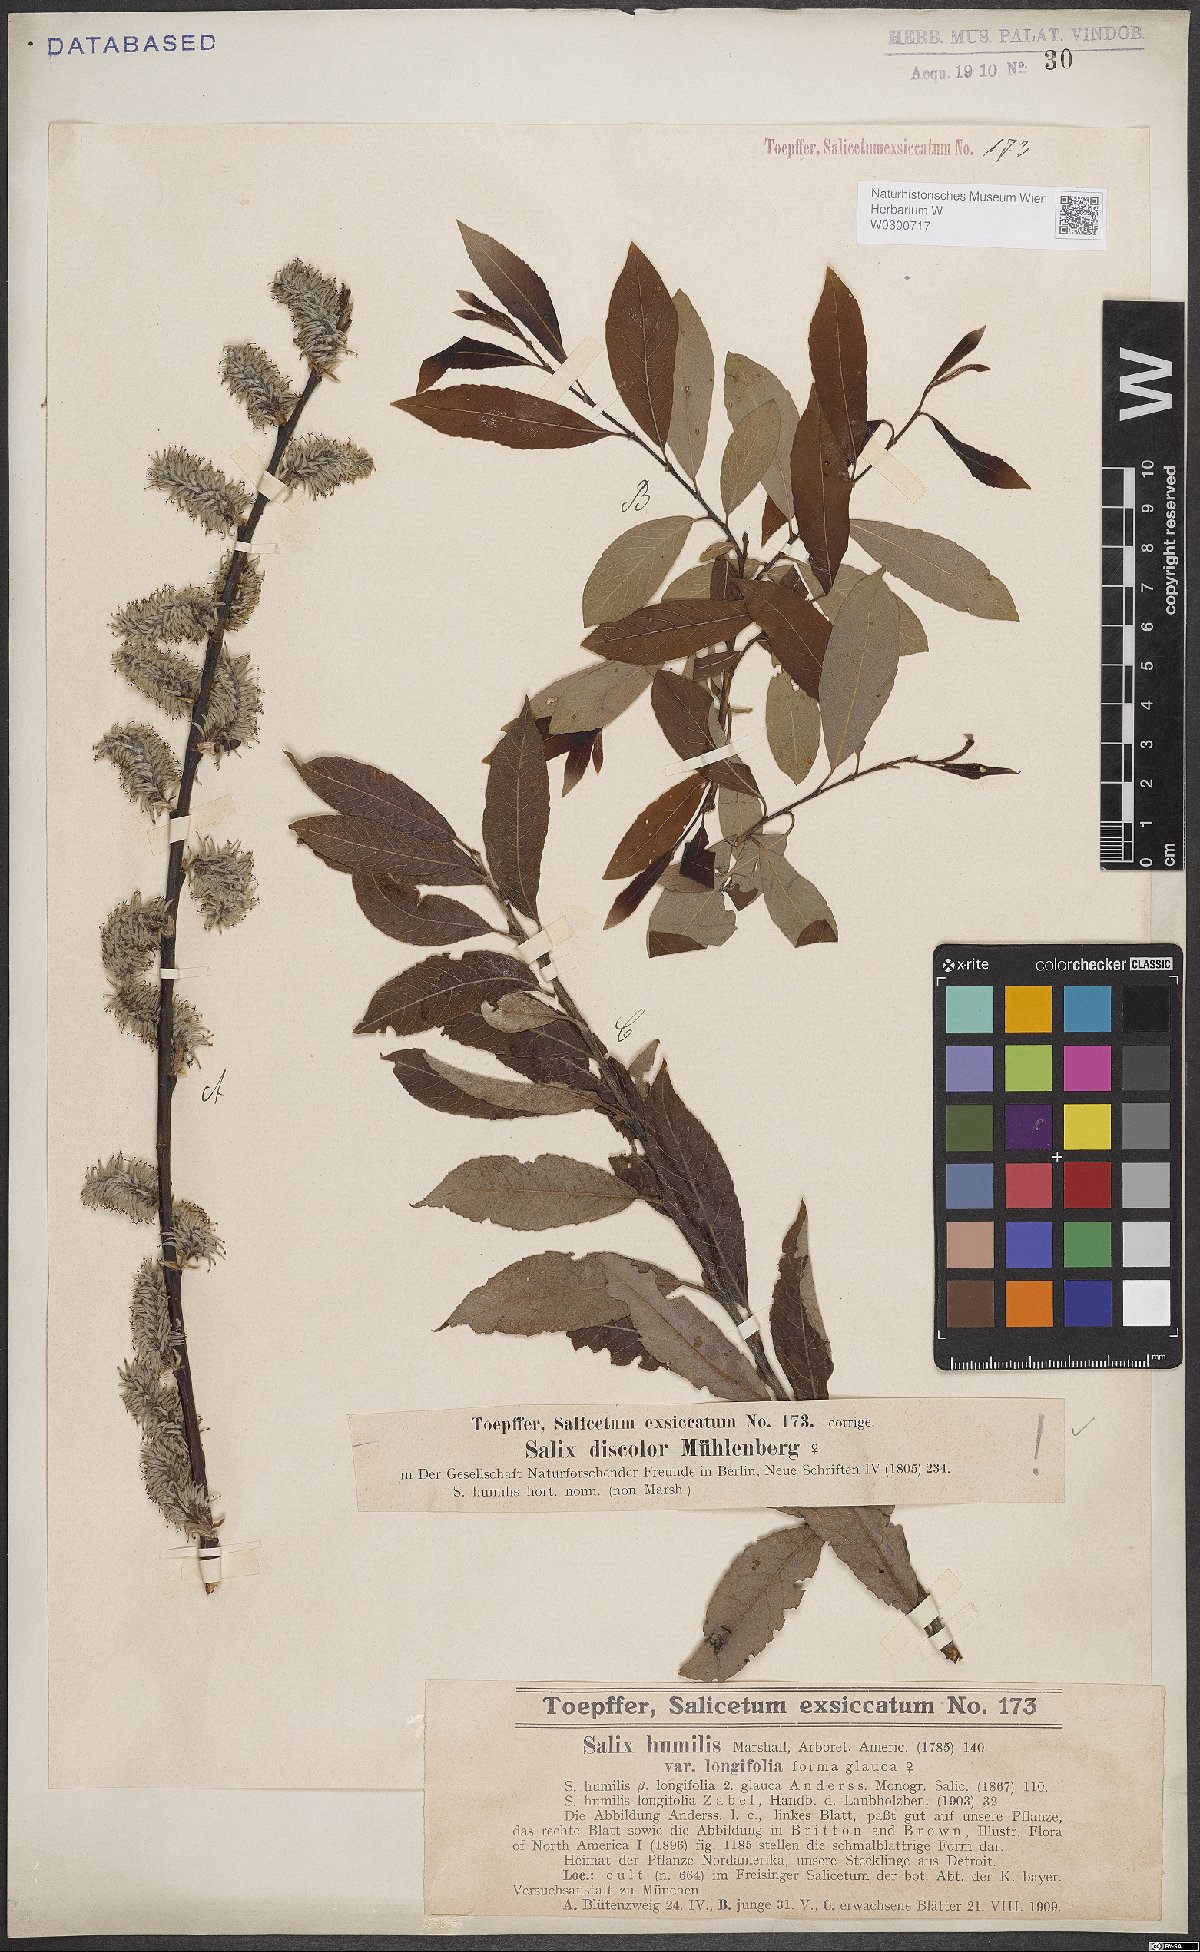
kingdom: Plantae
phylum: Tracheophyta
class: Magnoliopsida
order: Malpighiales
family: Salicaceae
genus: Salix
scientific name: Salix discolor
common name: Glaucous willow
